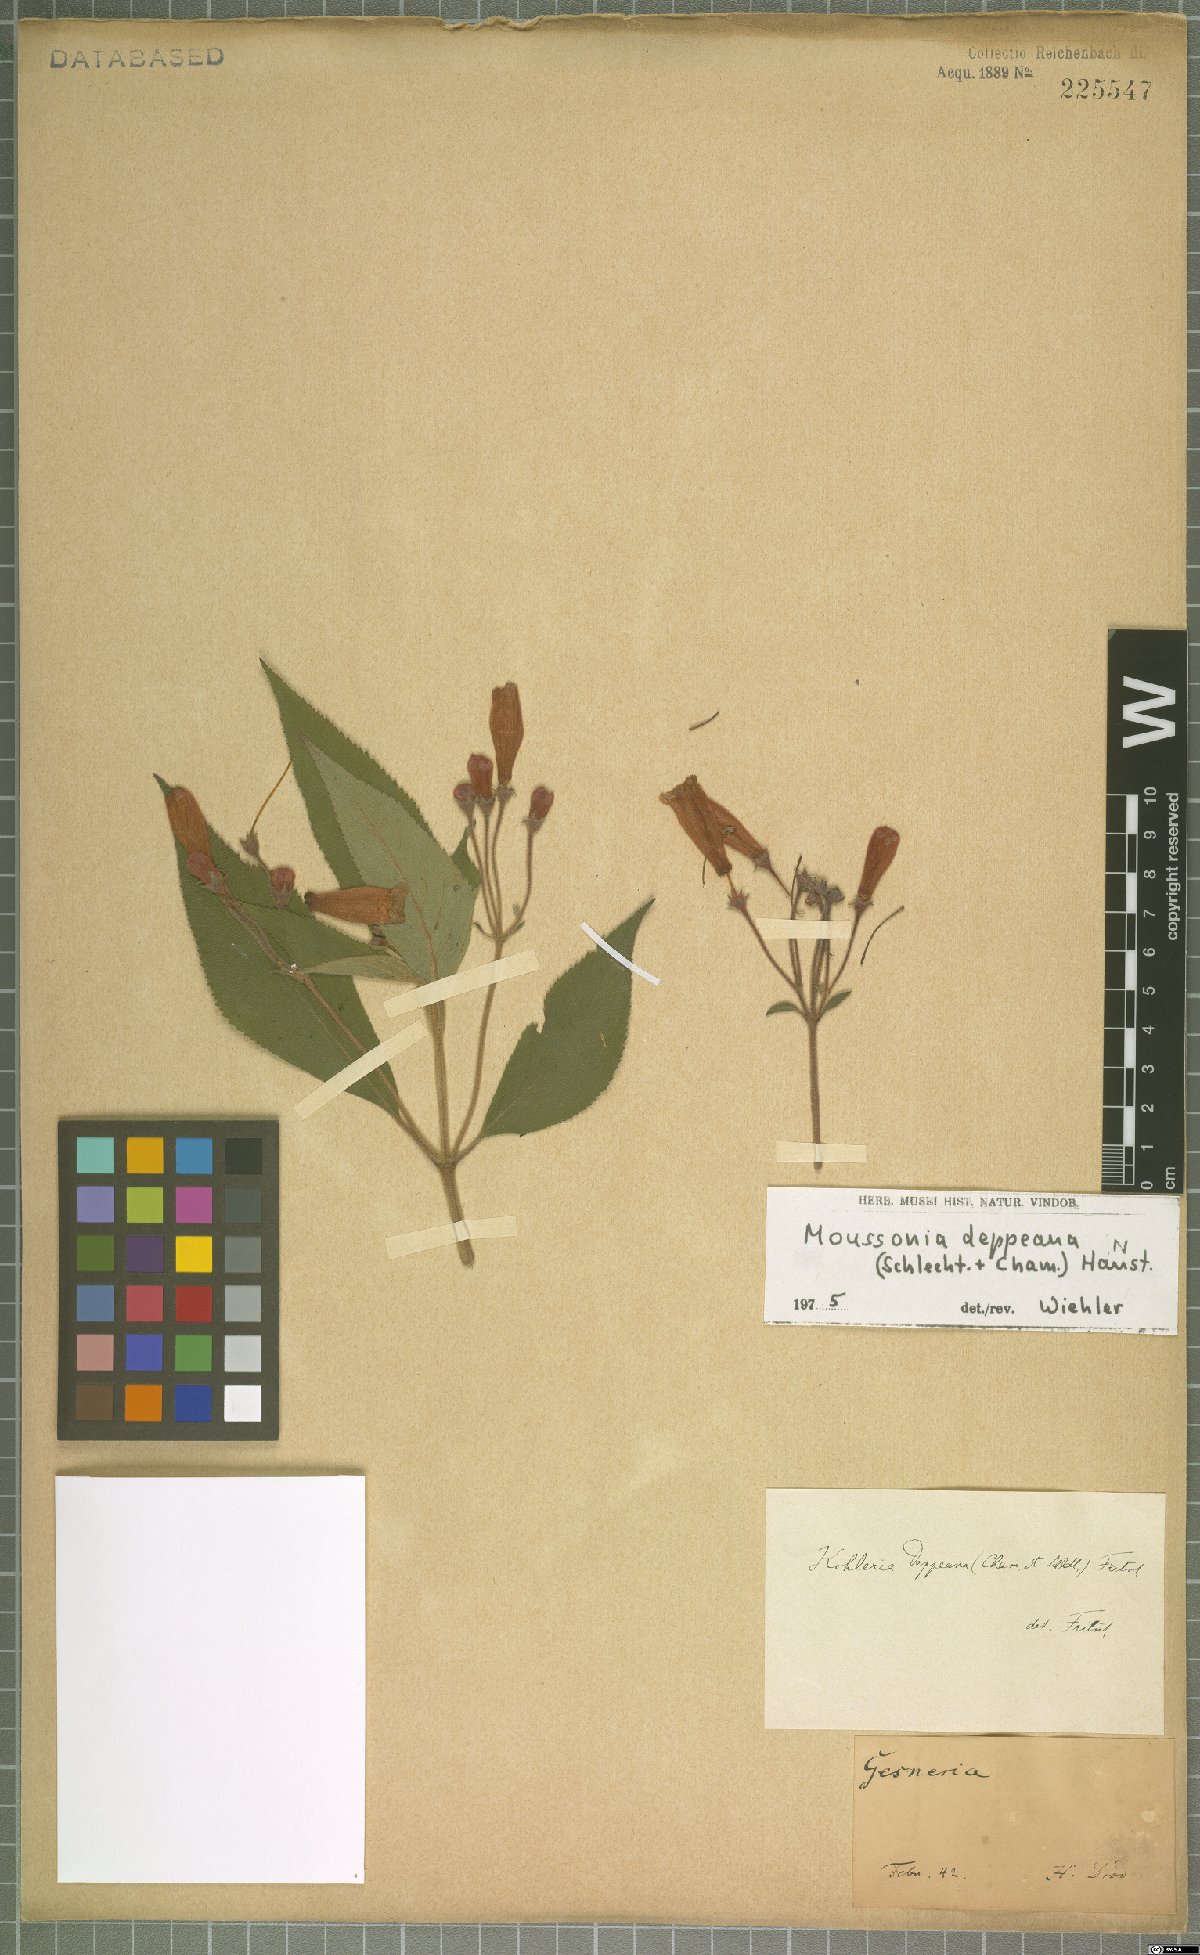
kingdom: Plantae
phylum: Tracheophyta
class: Magnoliopsida
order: Lamiales
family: Gesneriaceae
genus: Moussonia
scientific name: Moussonia deppeana
